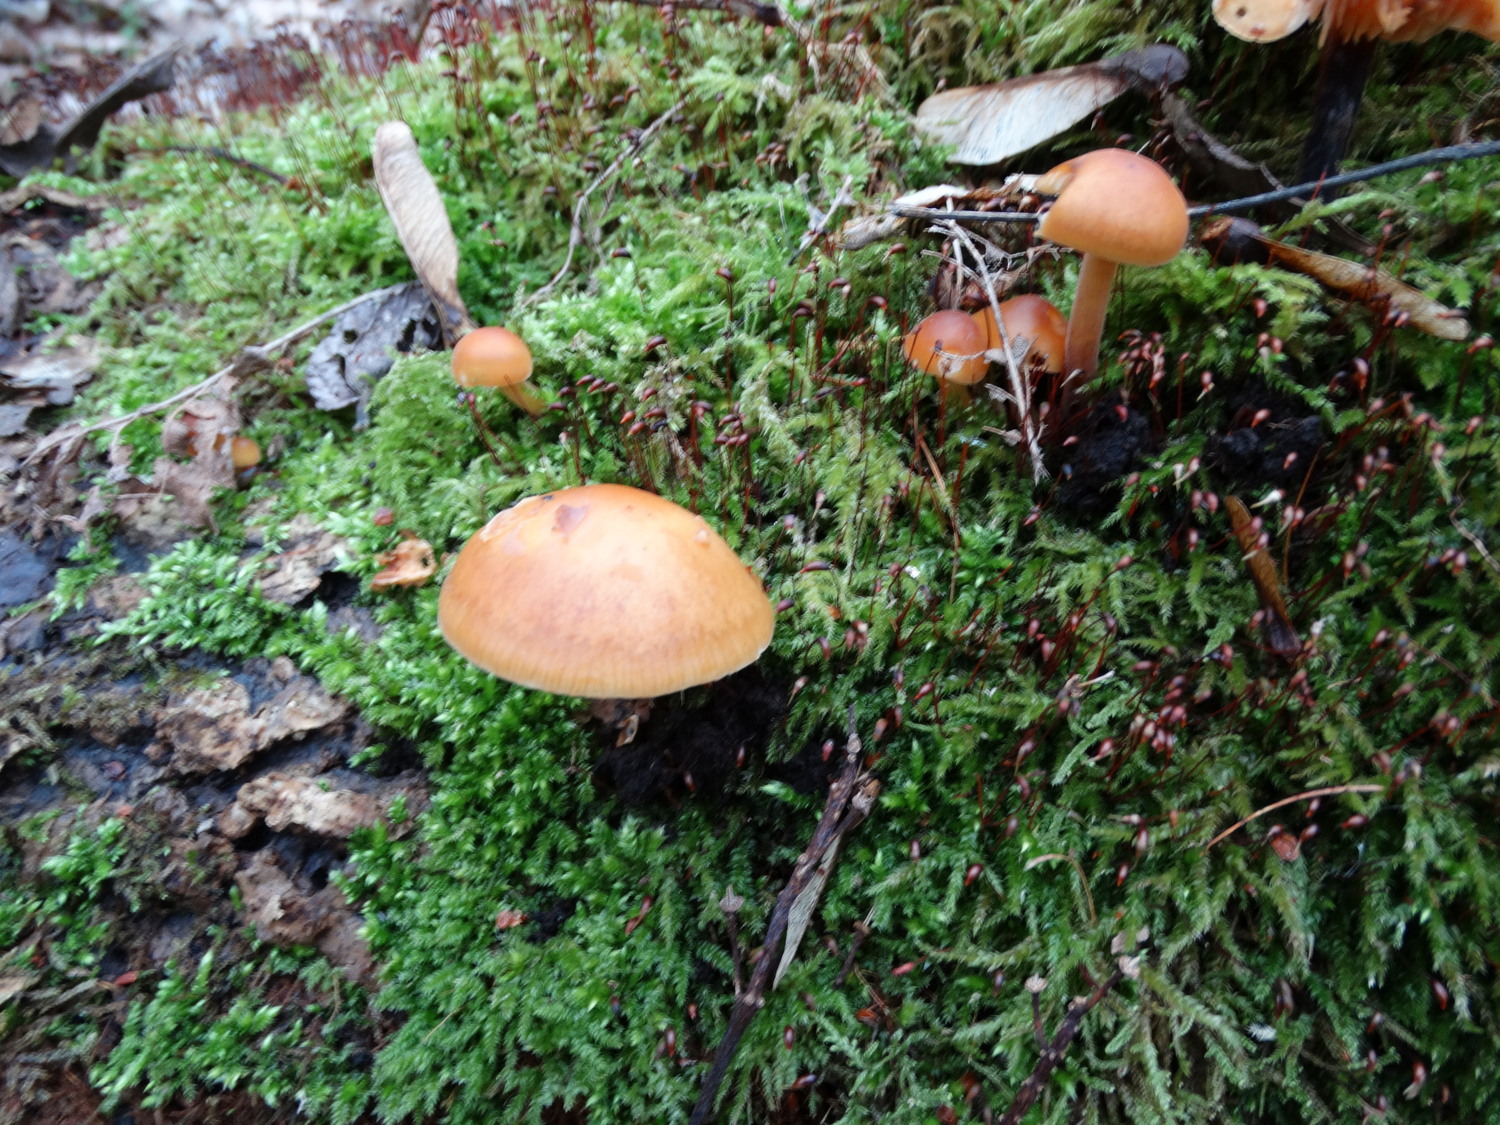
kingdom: Fungi
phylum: Basidiomycota
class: Agaricomycetes
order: Agaricales
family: Physalacriaceae
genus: Flammulina
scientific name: Flammulina velutipes
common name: gul fløjlsfod
